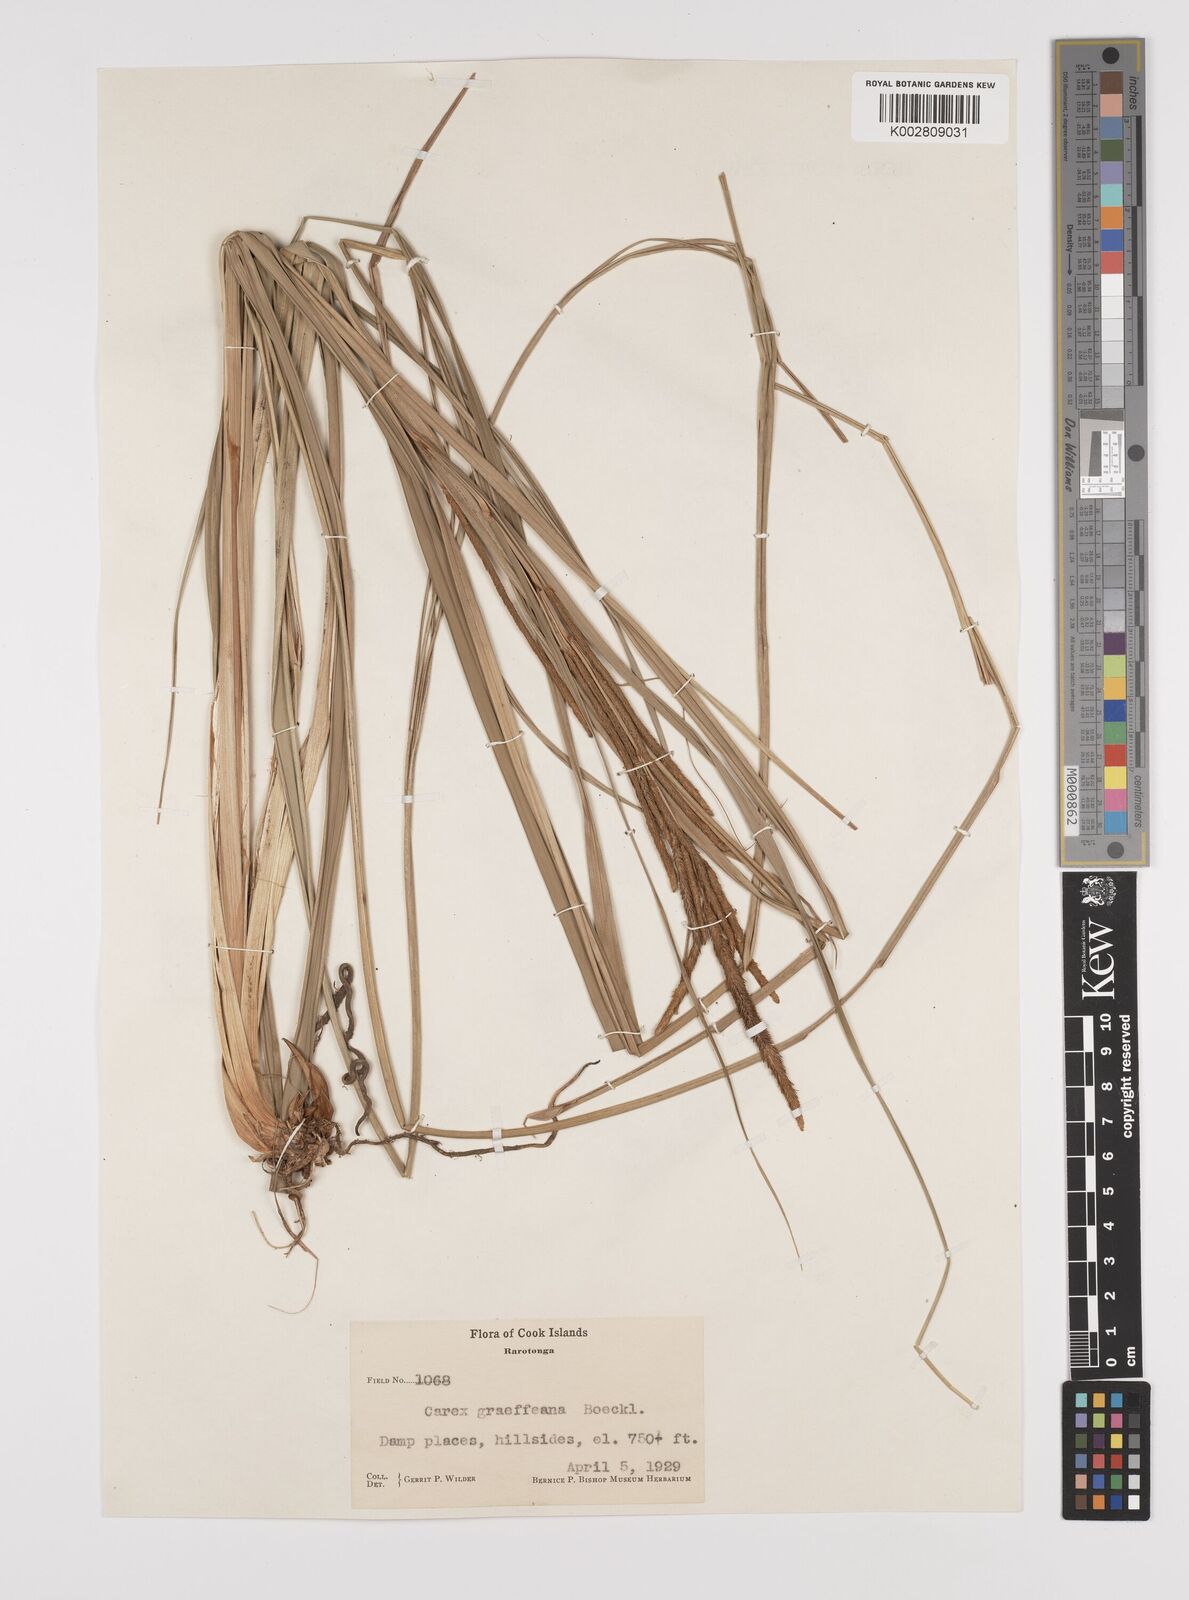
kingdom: Plantae
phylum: Tracheophyta
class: Liliopsida
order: Poales
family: Cyperaceae
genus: Carex
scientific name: Carex graeffeana
